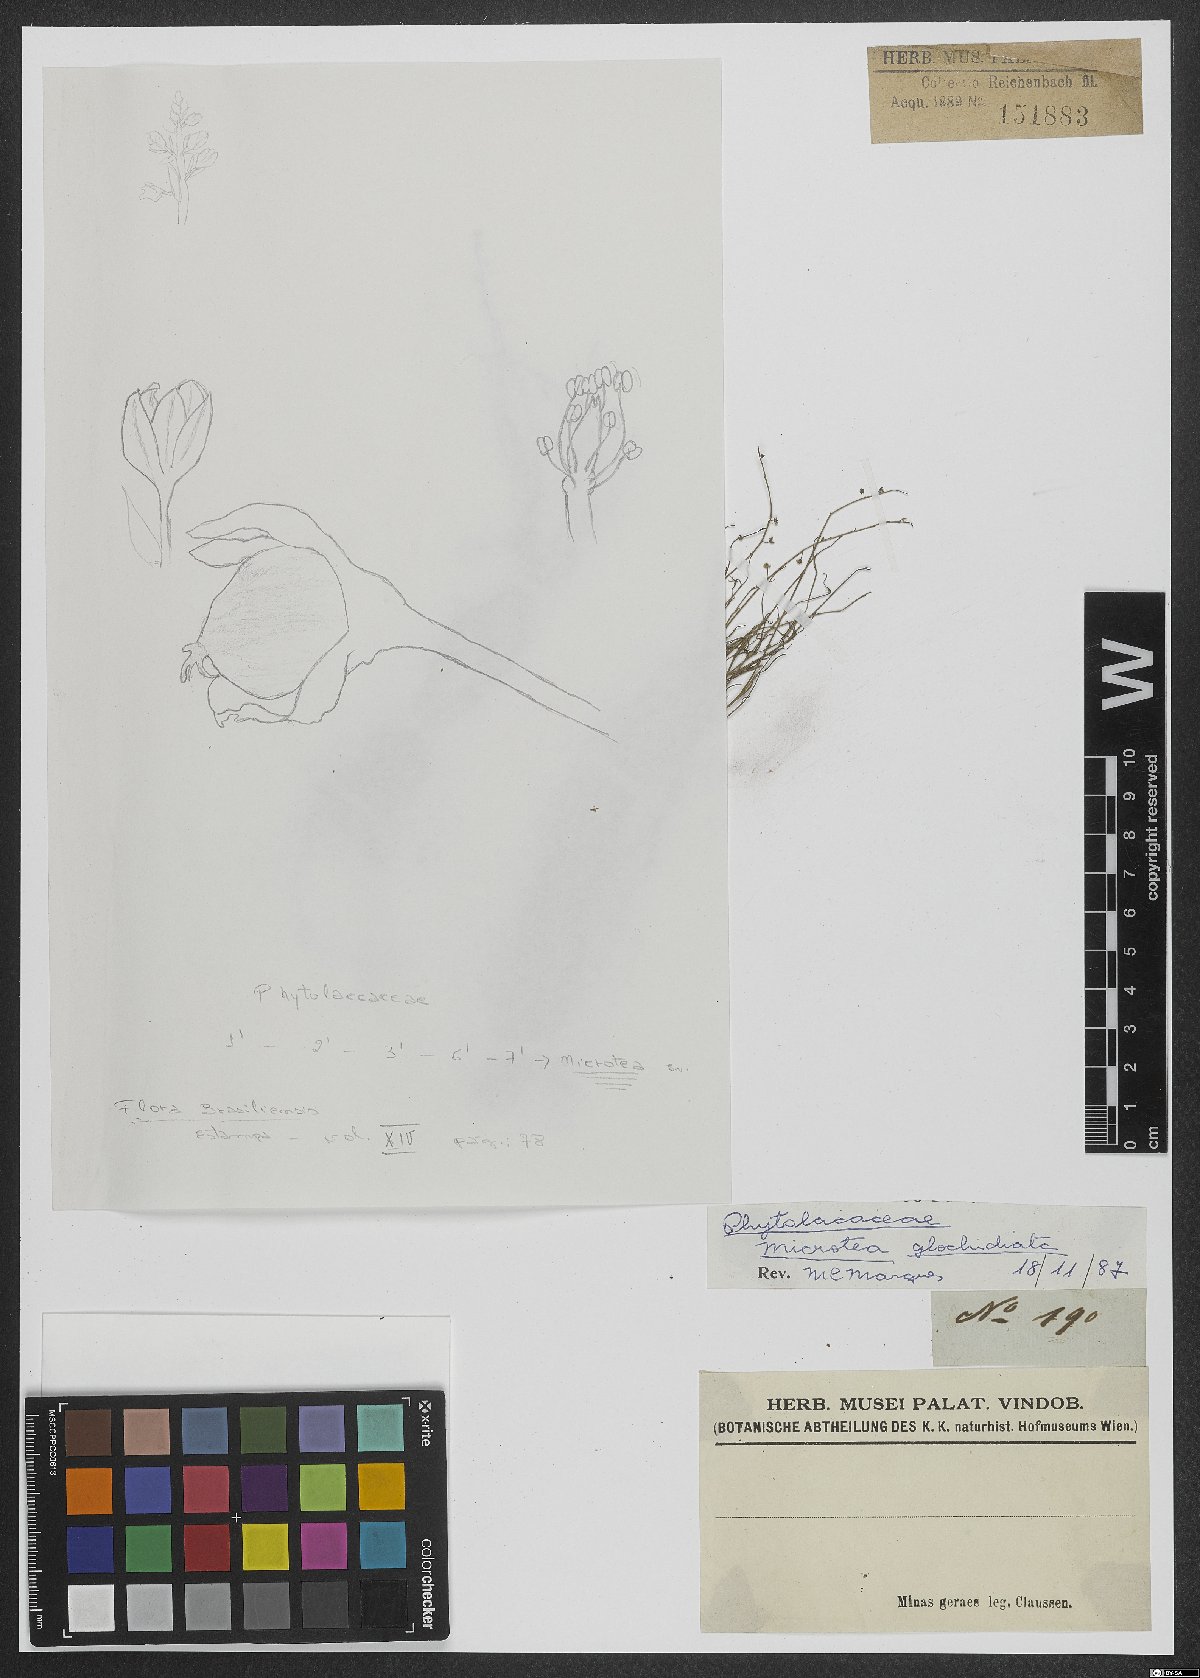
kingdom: Plantae
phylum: Tracheophyta
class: Magnoliopsida
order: Caryophyllales
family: Microteaceae
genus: Microtea
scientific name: Microtea tenuifolia
